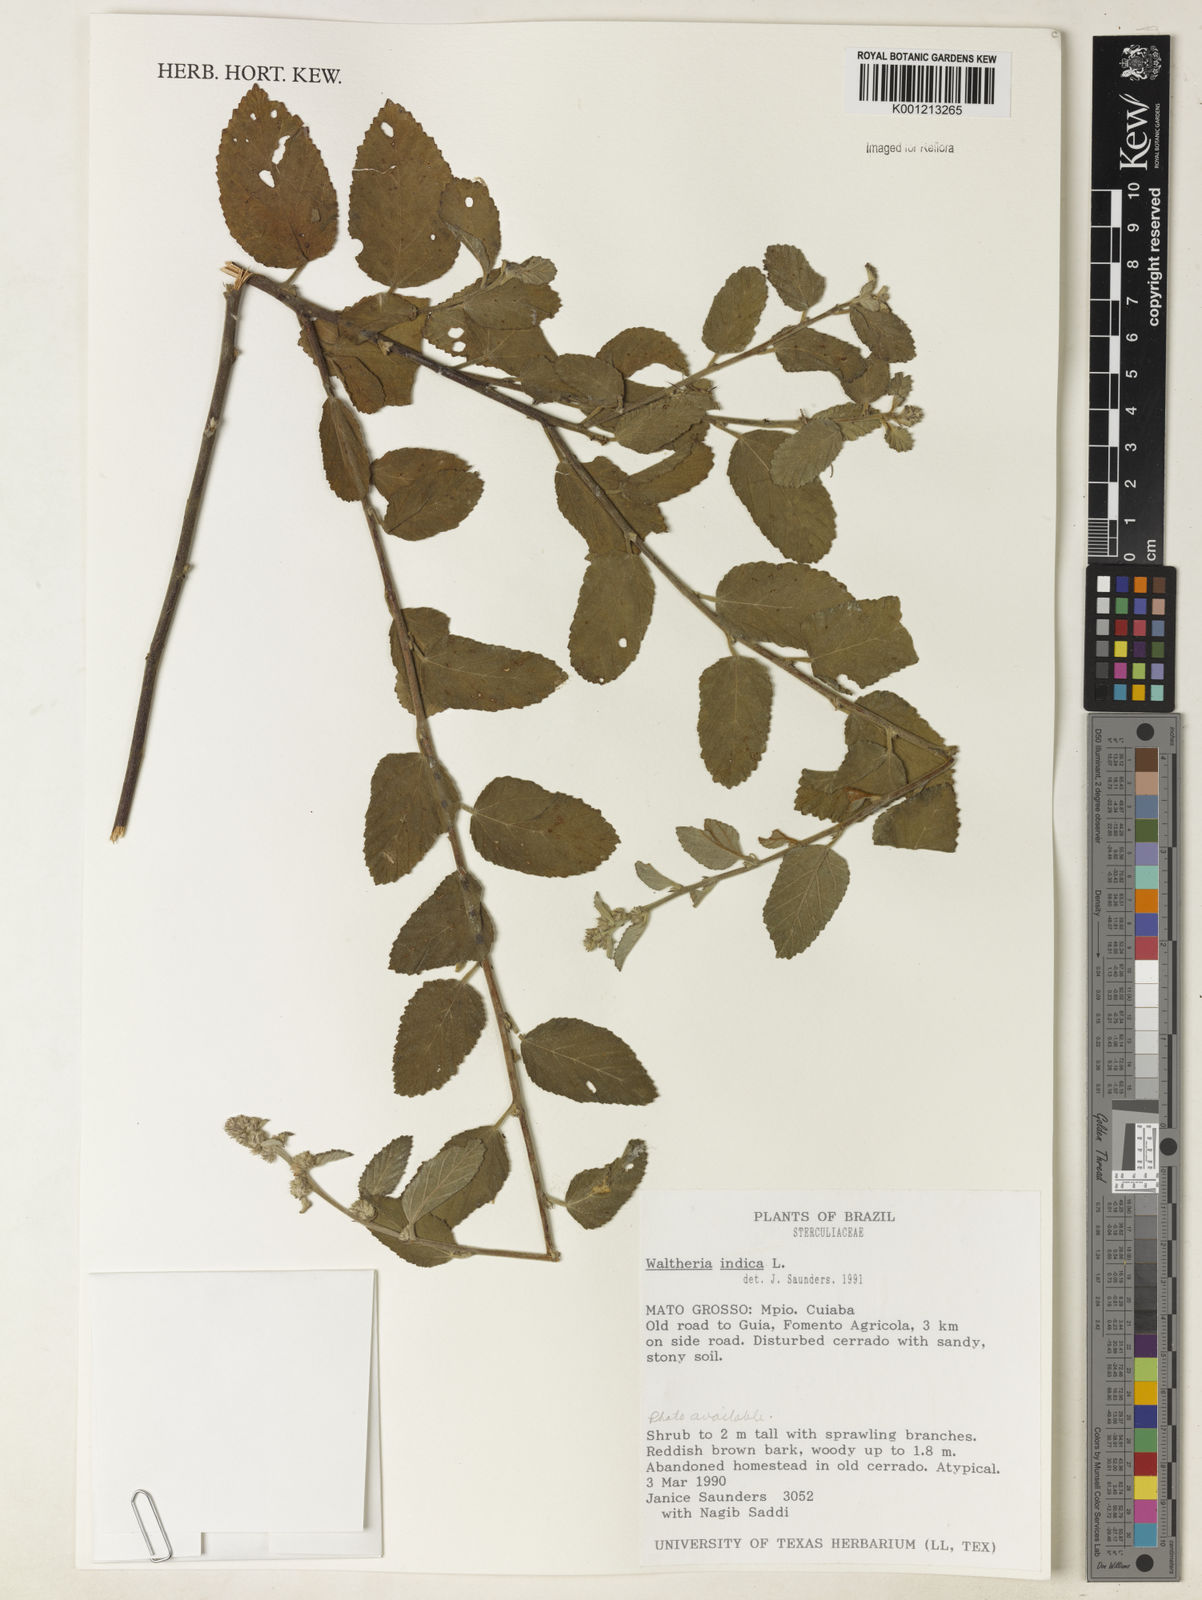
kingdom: Plantae
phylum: Tracheophyta
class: Magnoliopsida
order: Malvales
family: Malvaceae
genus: Waltheria
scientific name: Waltheria indica
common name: Leather-coat
